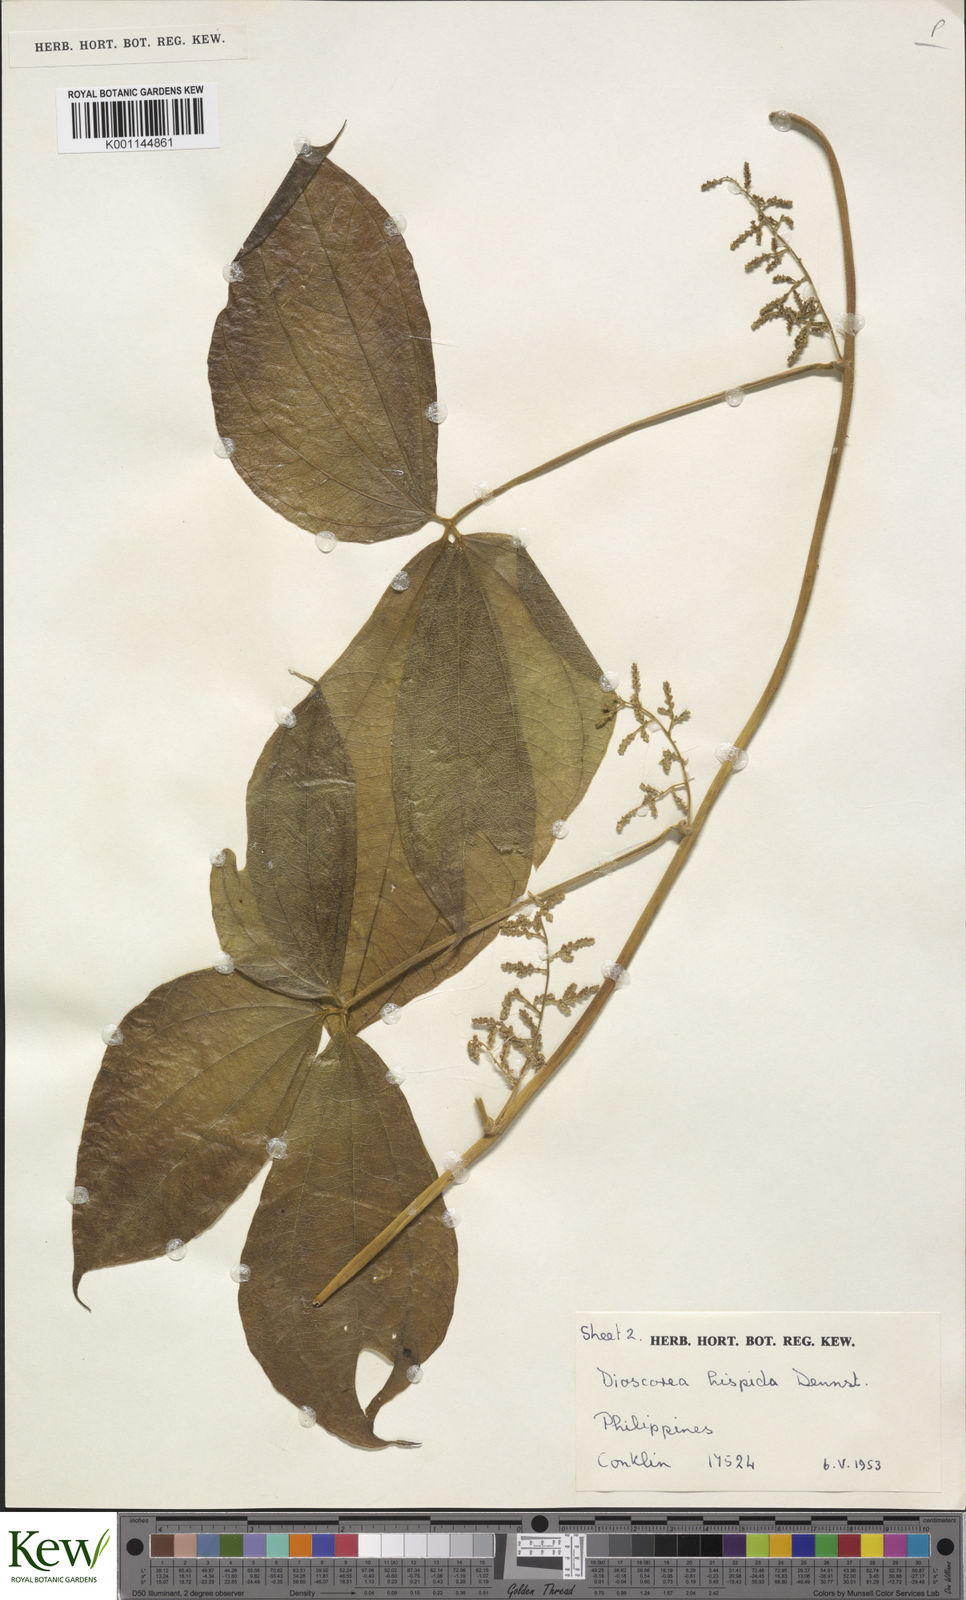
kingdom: Plantae
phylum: Tracheophyta
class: Liliopsida
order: Dioscoreales
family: Dioscoreaceae
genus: Dioscorea
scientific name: Dioscorea hispida
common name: Asiatic bitter yam
